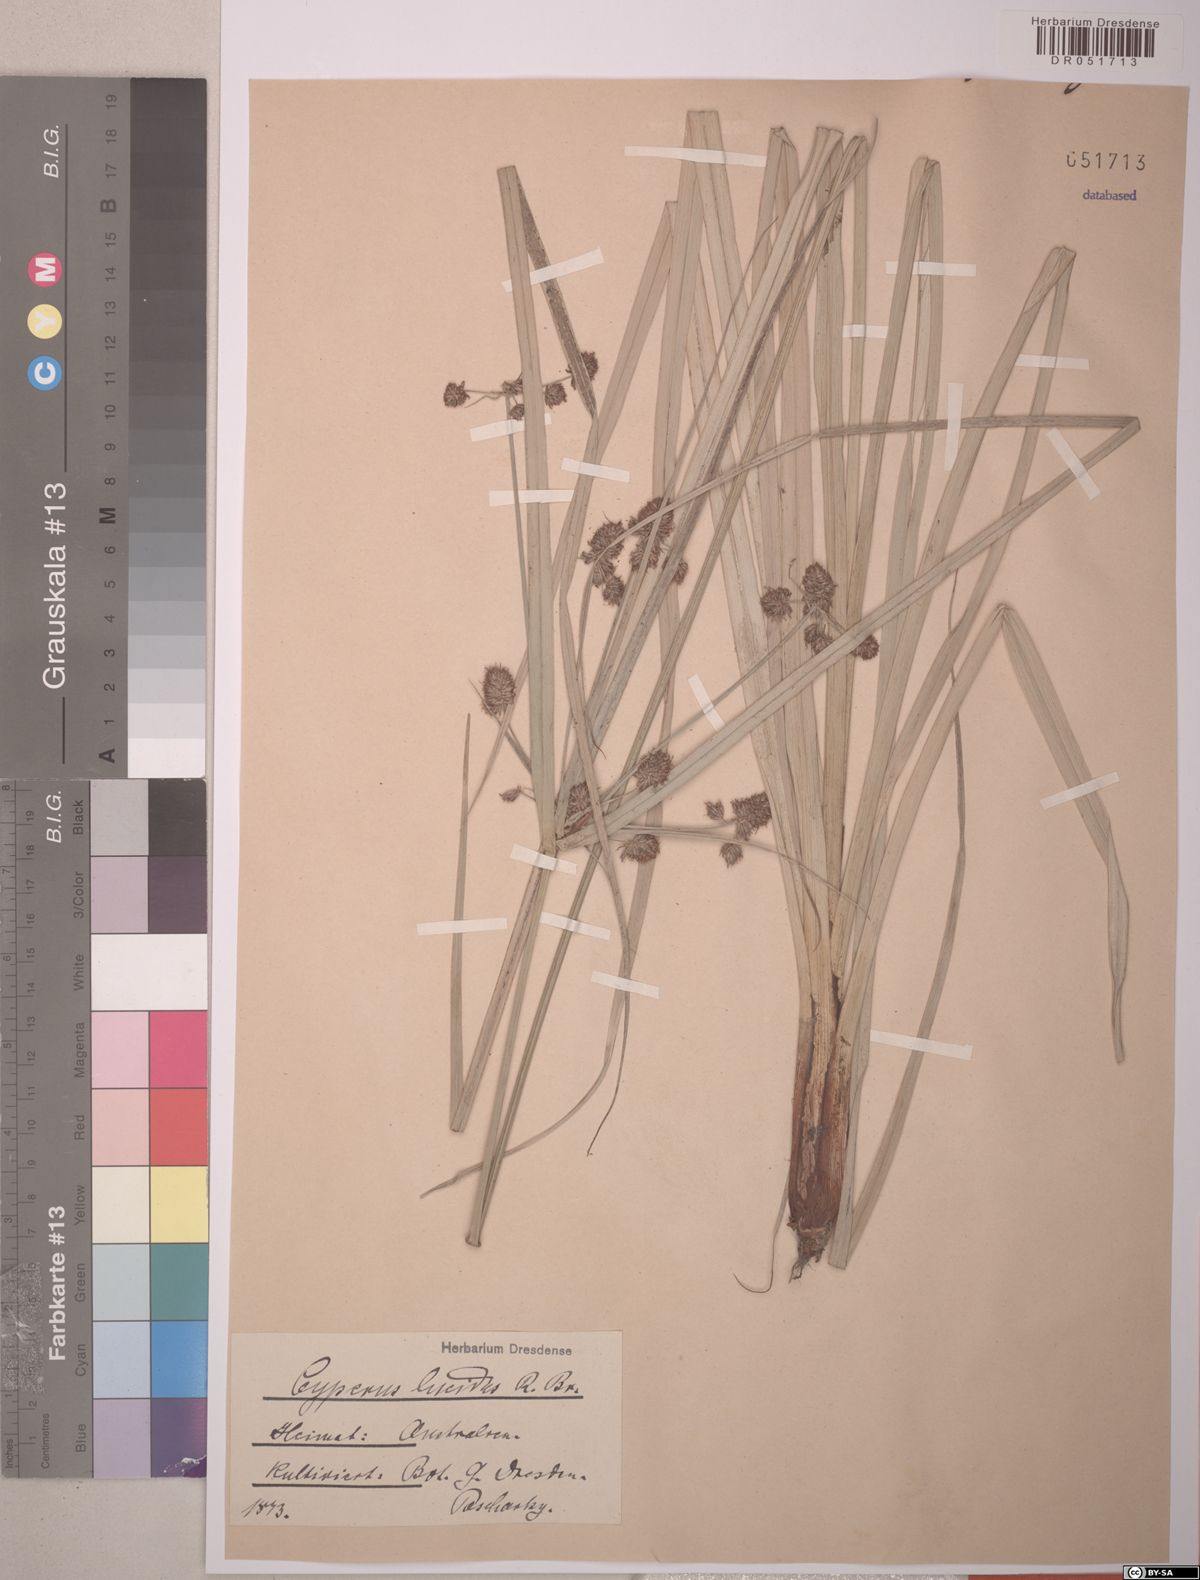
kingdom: Plantae
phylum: Tracheophyta
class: Liliopsida
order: Poales
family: Cyperaceae
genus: Cyperus
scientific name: Cyperus lucidus
